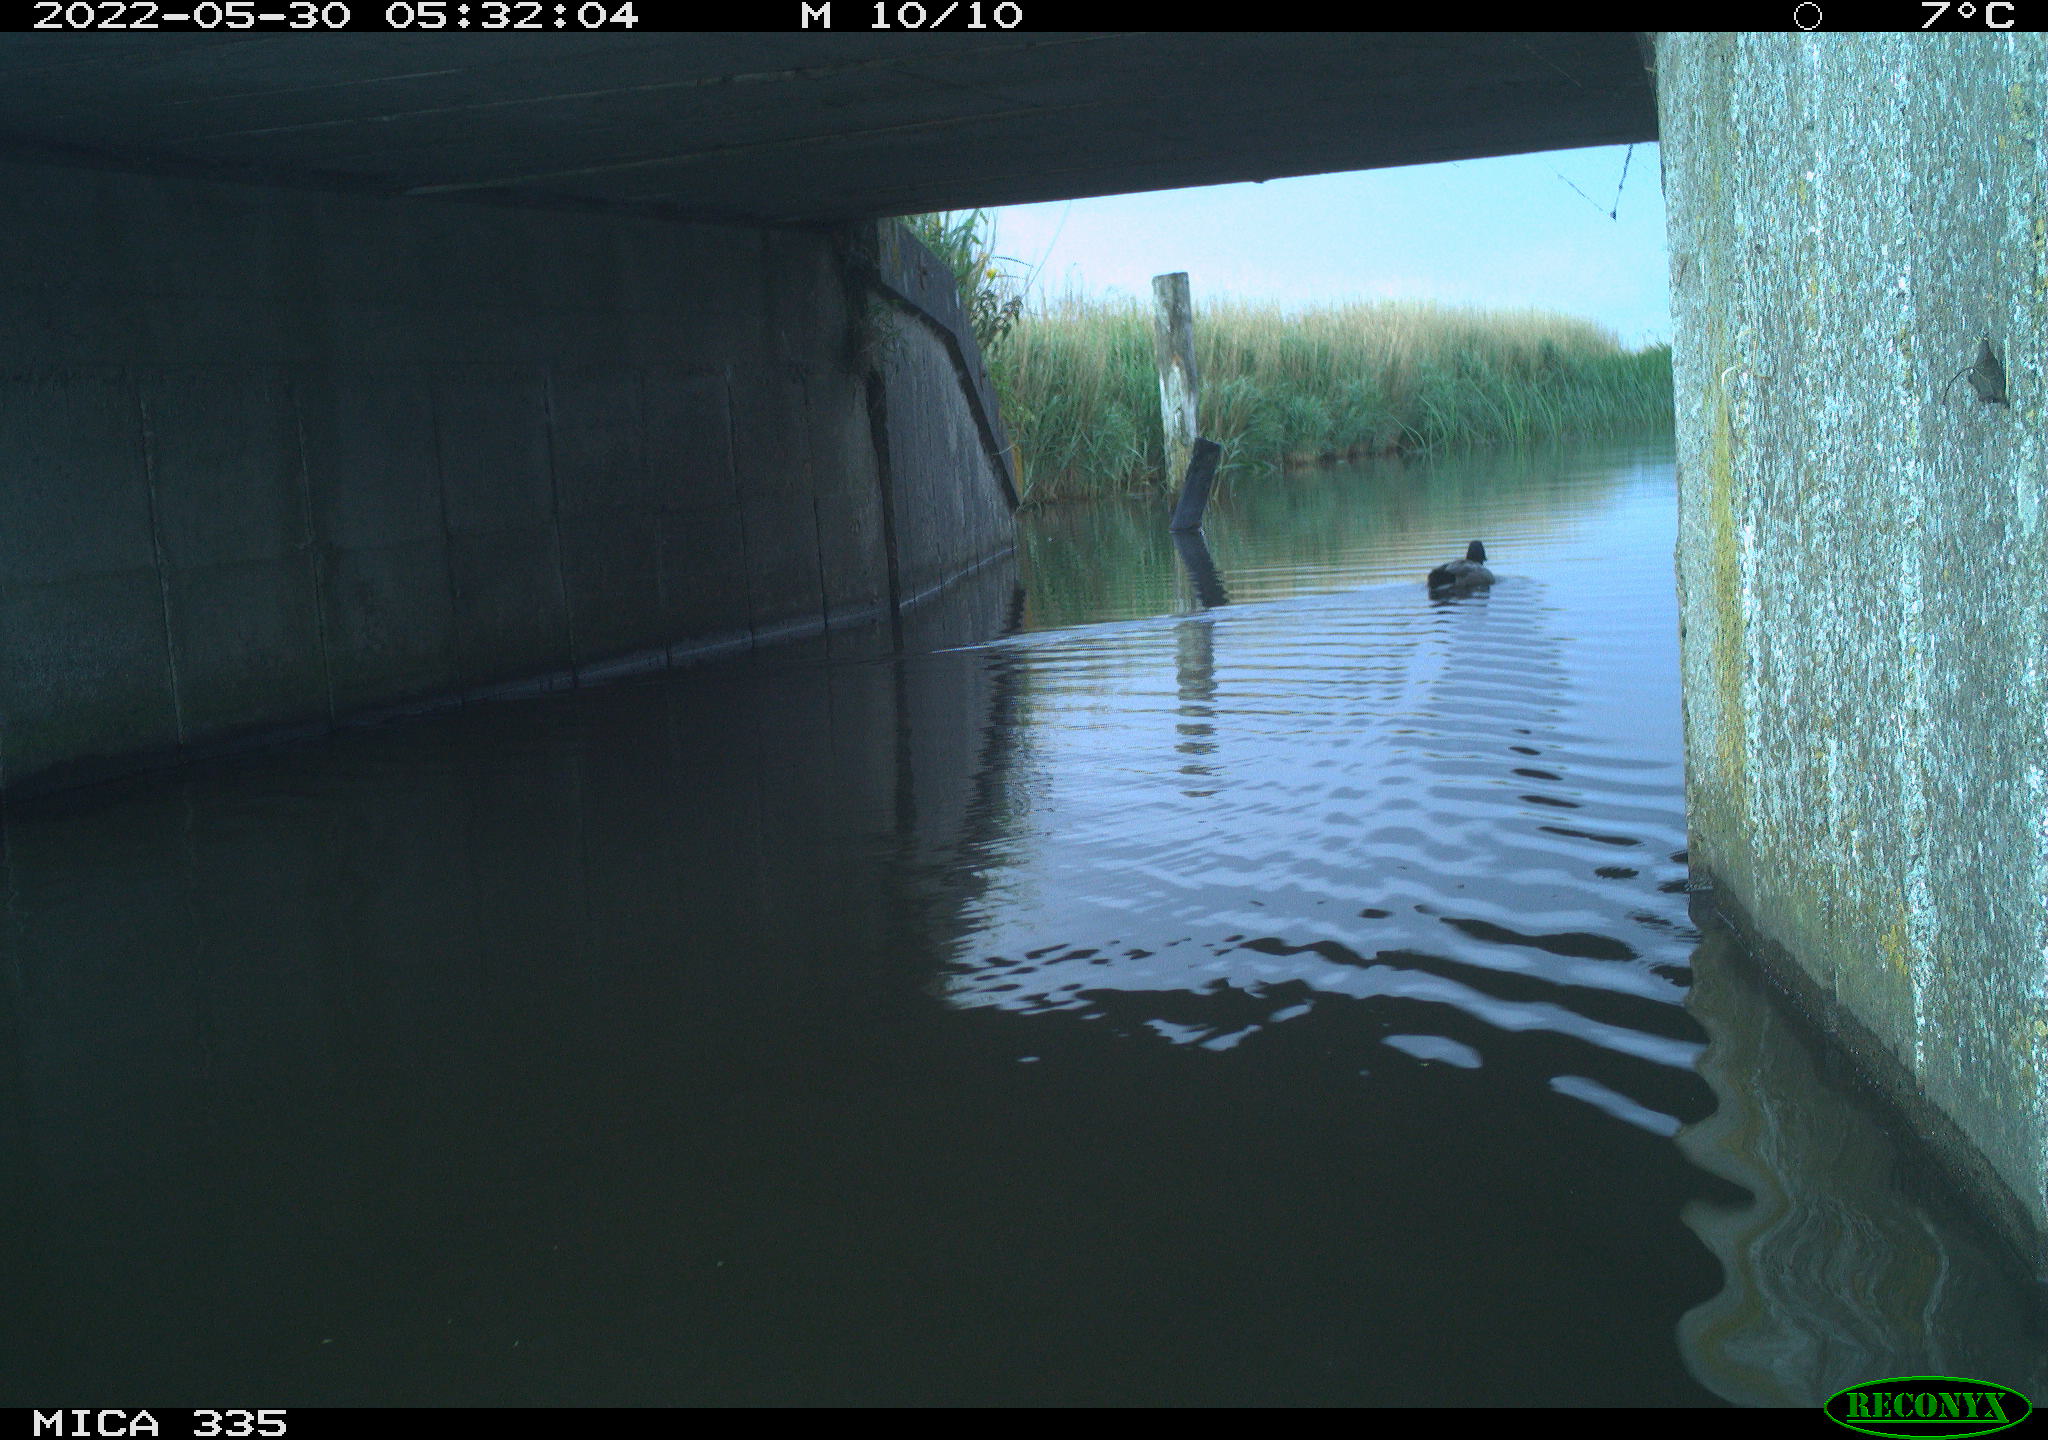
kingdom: Animalia
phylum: Chordata
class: Aves
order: Anseriformes
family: Anatidae
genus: Anas
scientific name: Anas platyrhynchos
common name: Mallard
